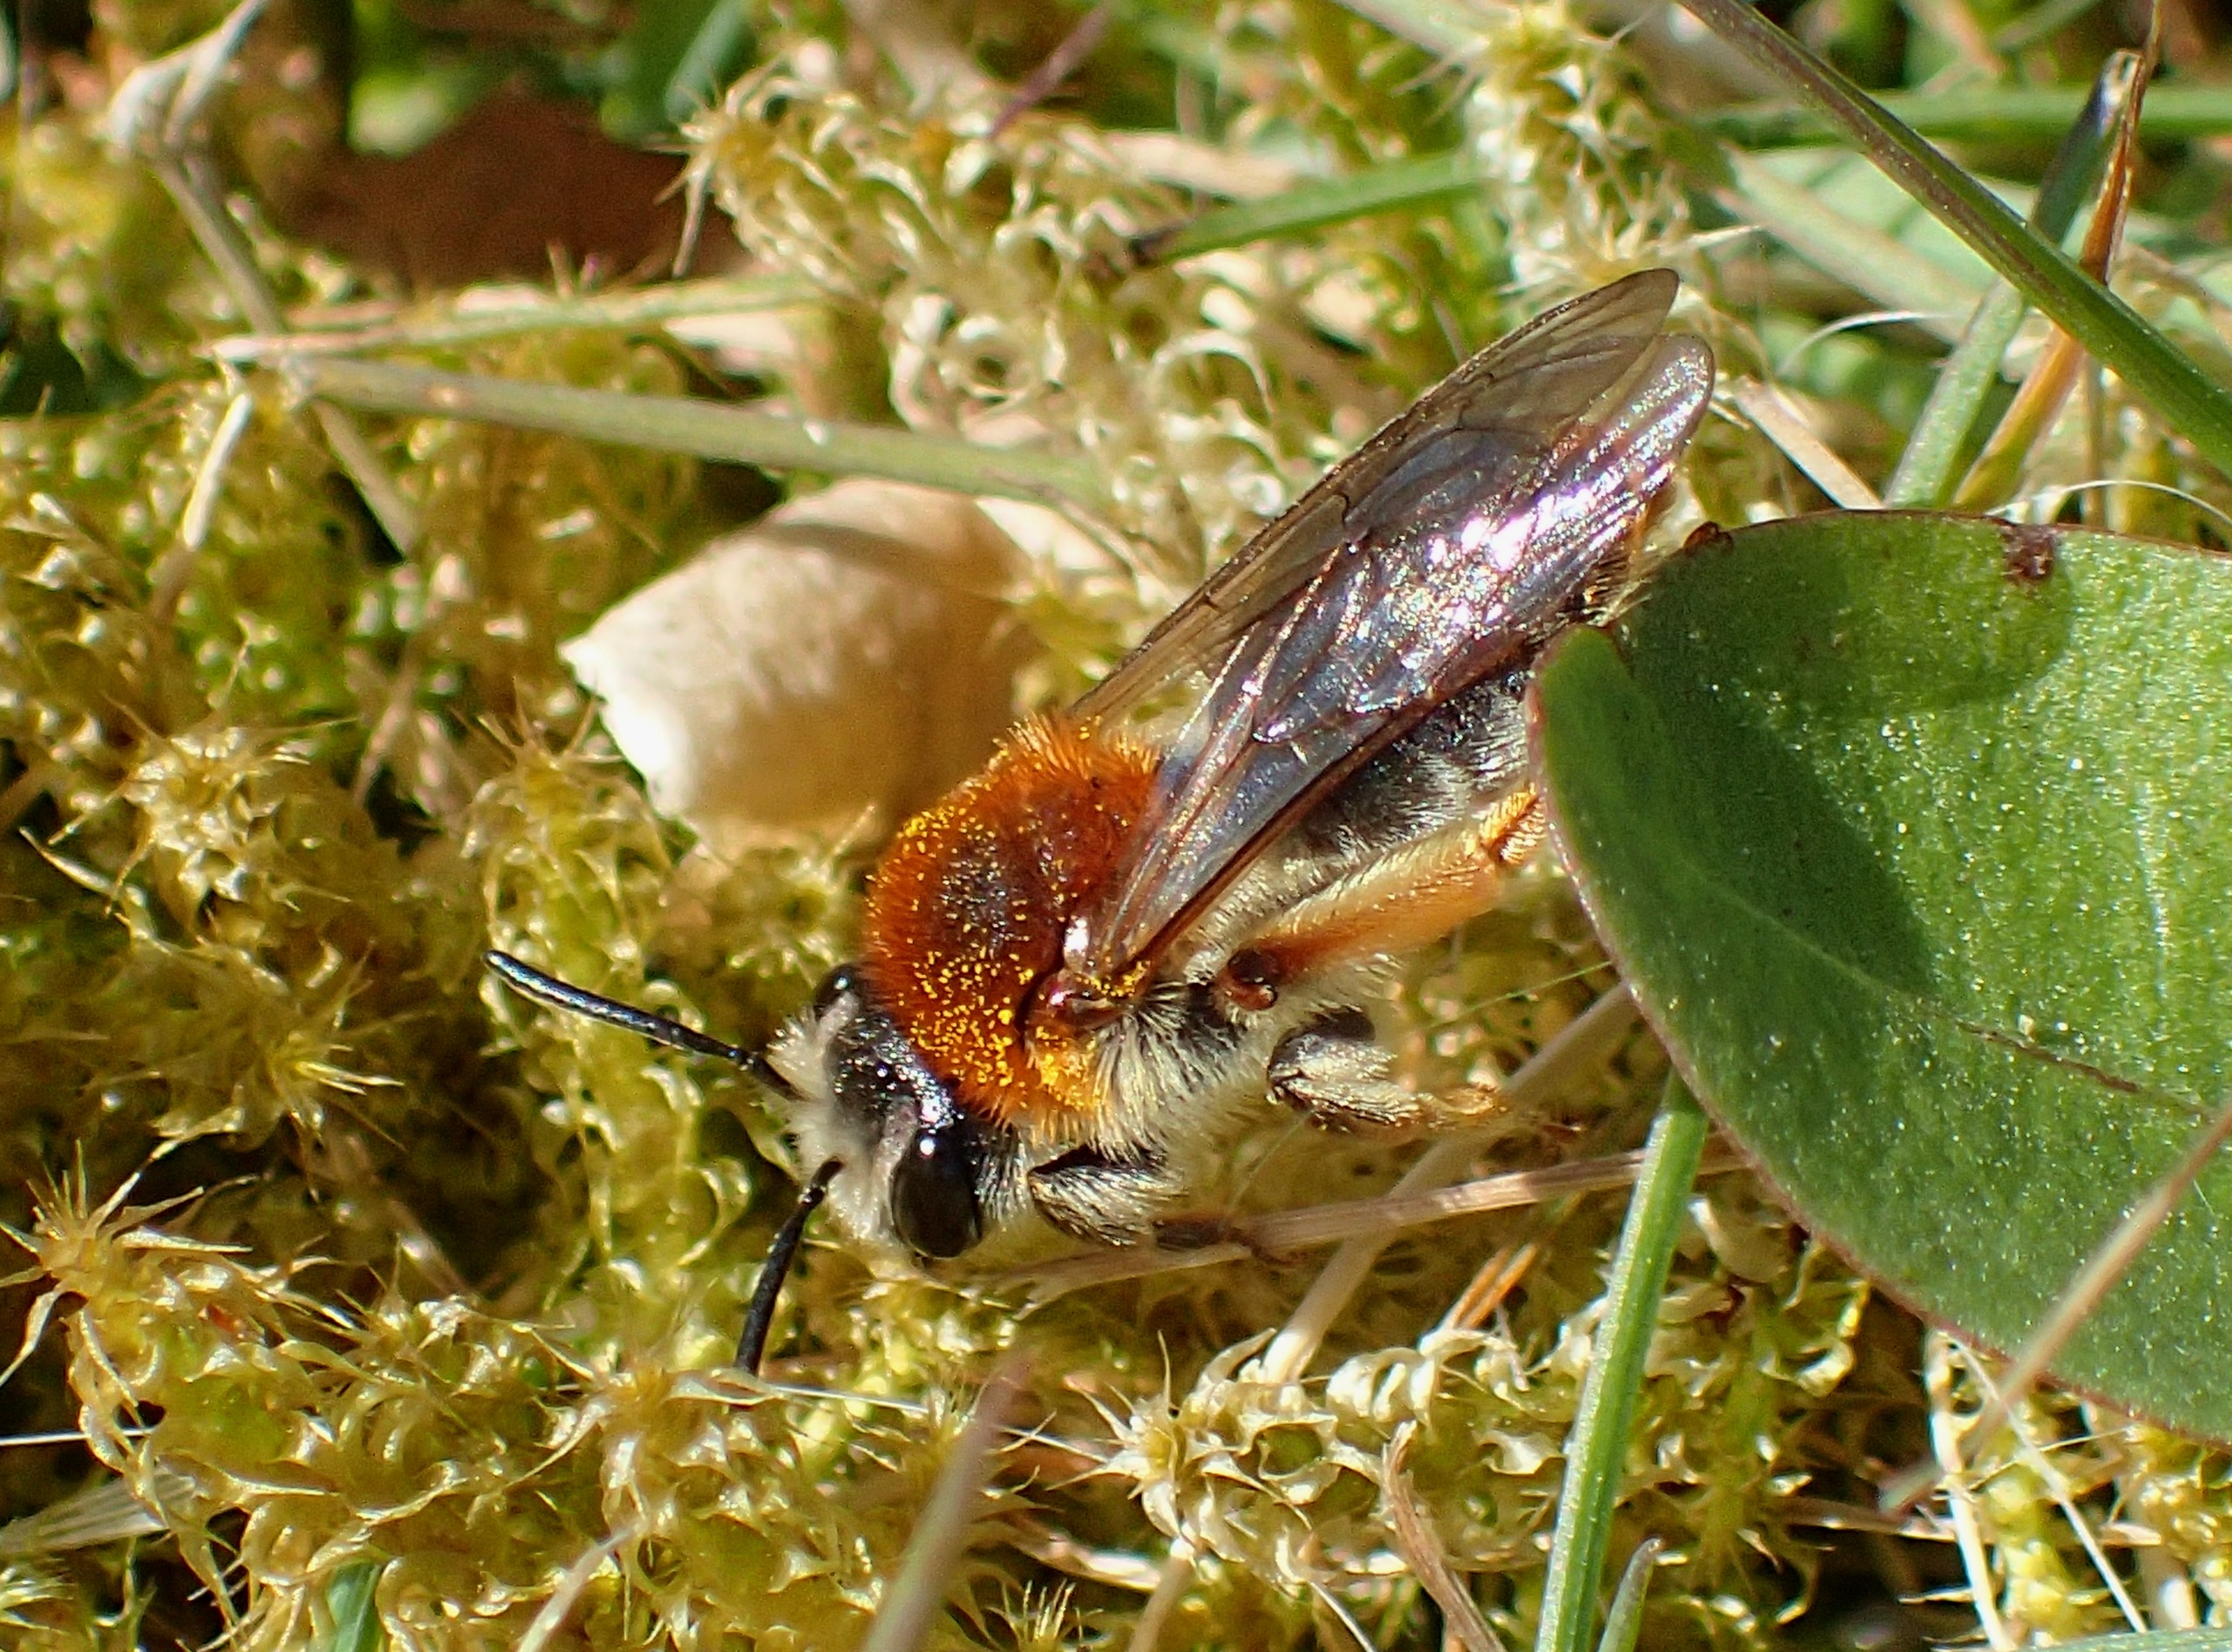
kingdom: Animalia
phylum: Arthropoda
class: Insecta
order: Hymenoptera
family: Andrenidae
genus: Andrena
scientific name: Andrena haemorrhoa
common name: Havejordbi
